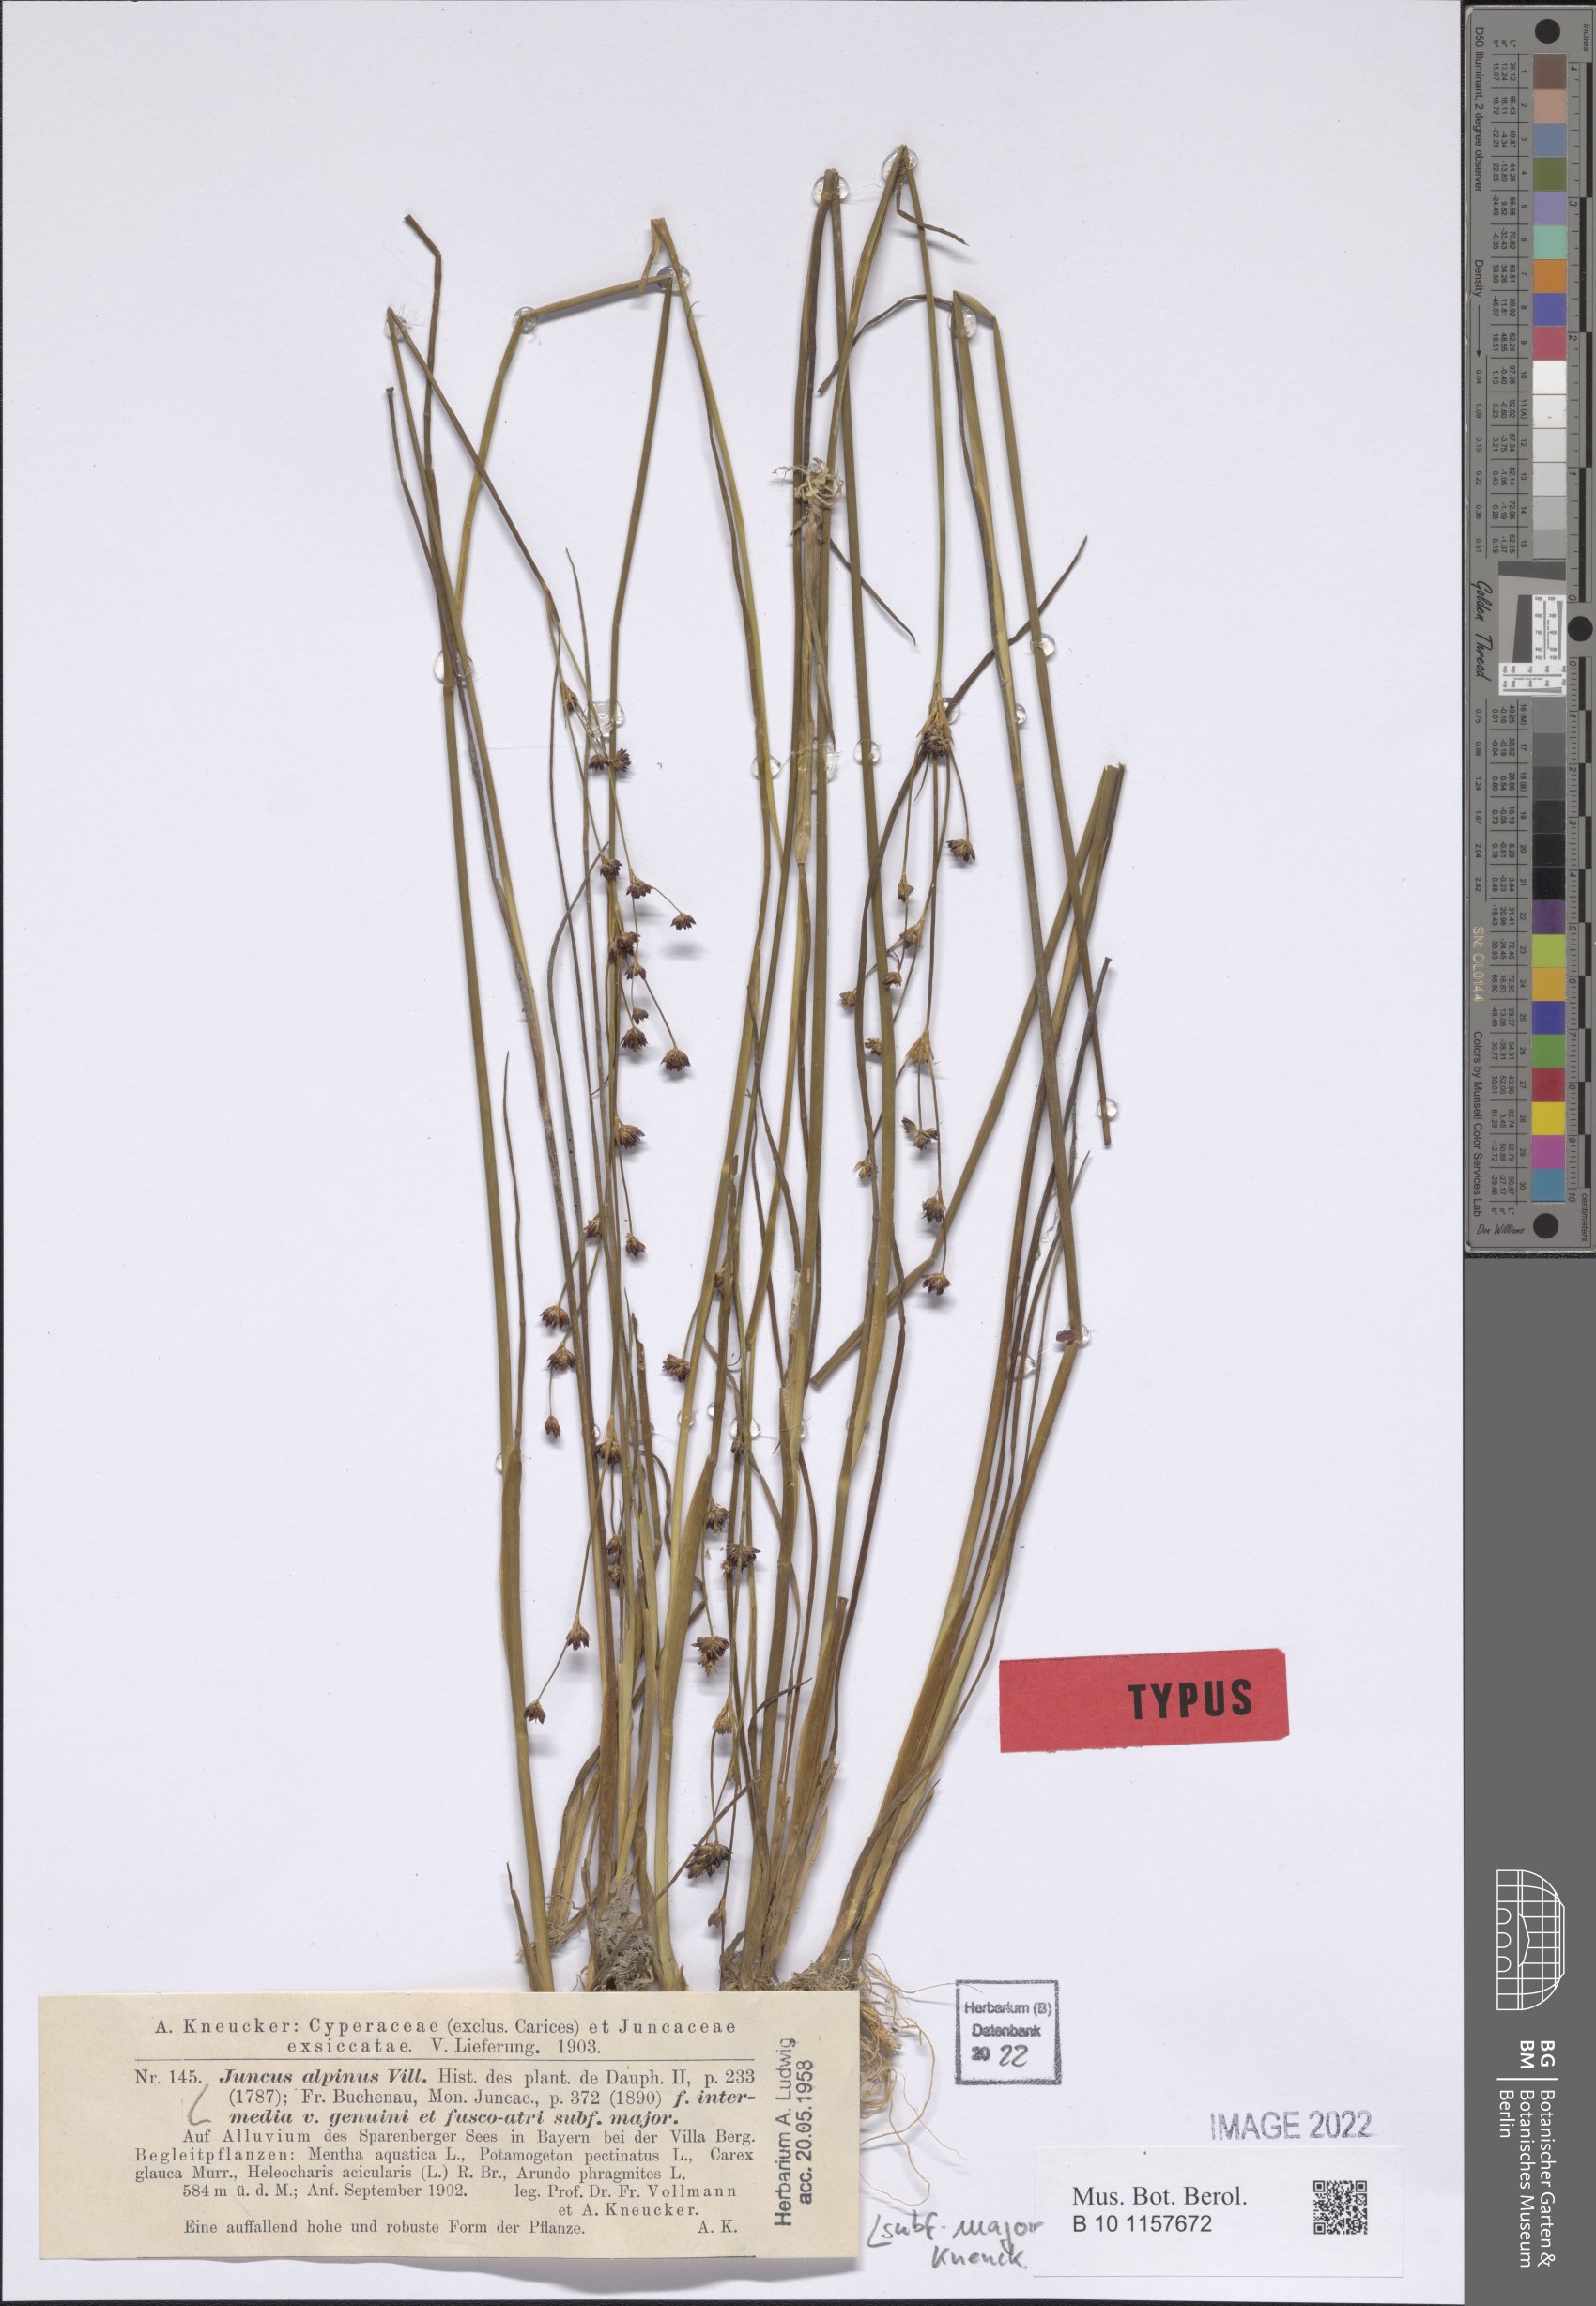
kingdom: Plantae
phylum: Tracheophyta
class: Liliopsida
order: Poales
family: Juncaceae
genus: Juncus
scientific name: Juncus alpinus
